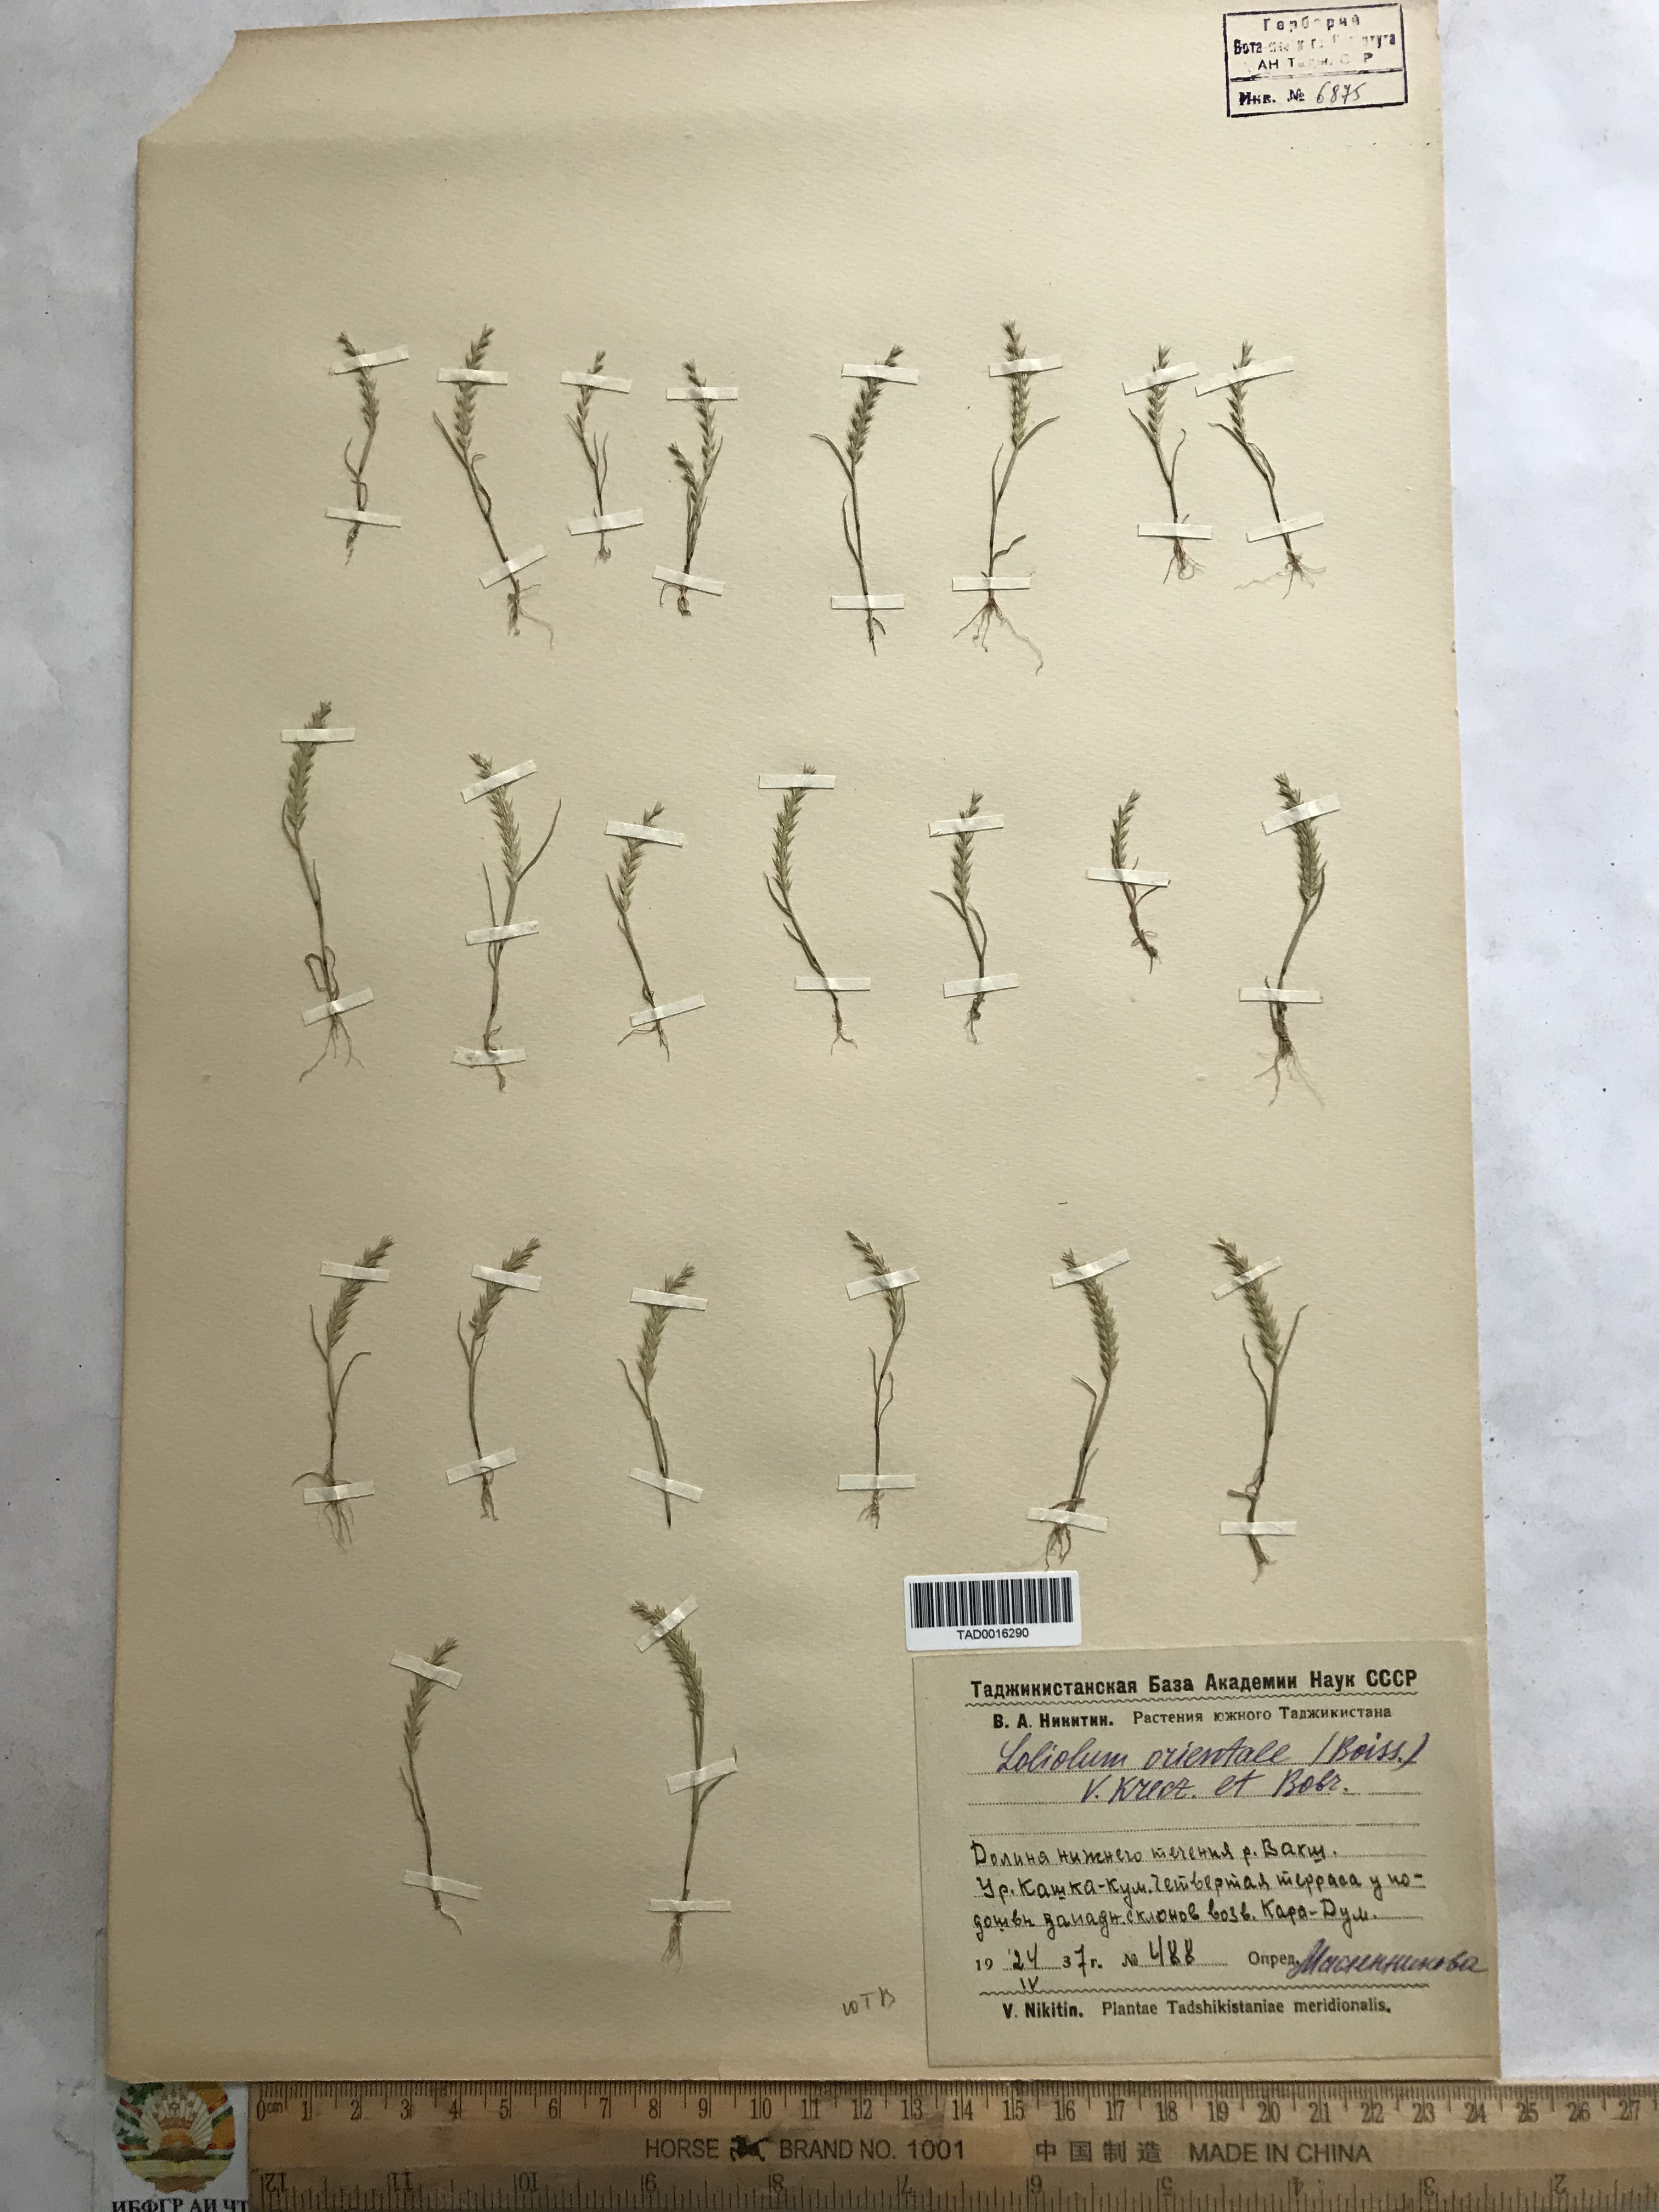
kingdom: Plantae
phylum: Tracheophyta
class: Liliopsida
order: Poales
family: Poaceae
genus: Festuca
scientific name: Festuca orientalis
